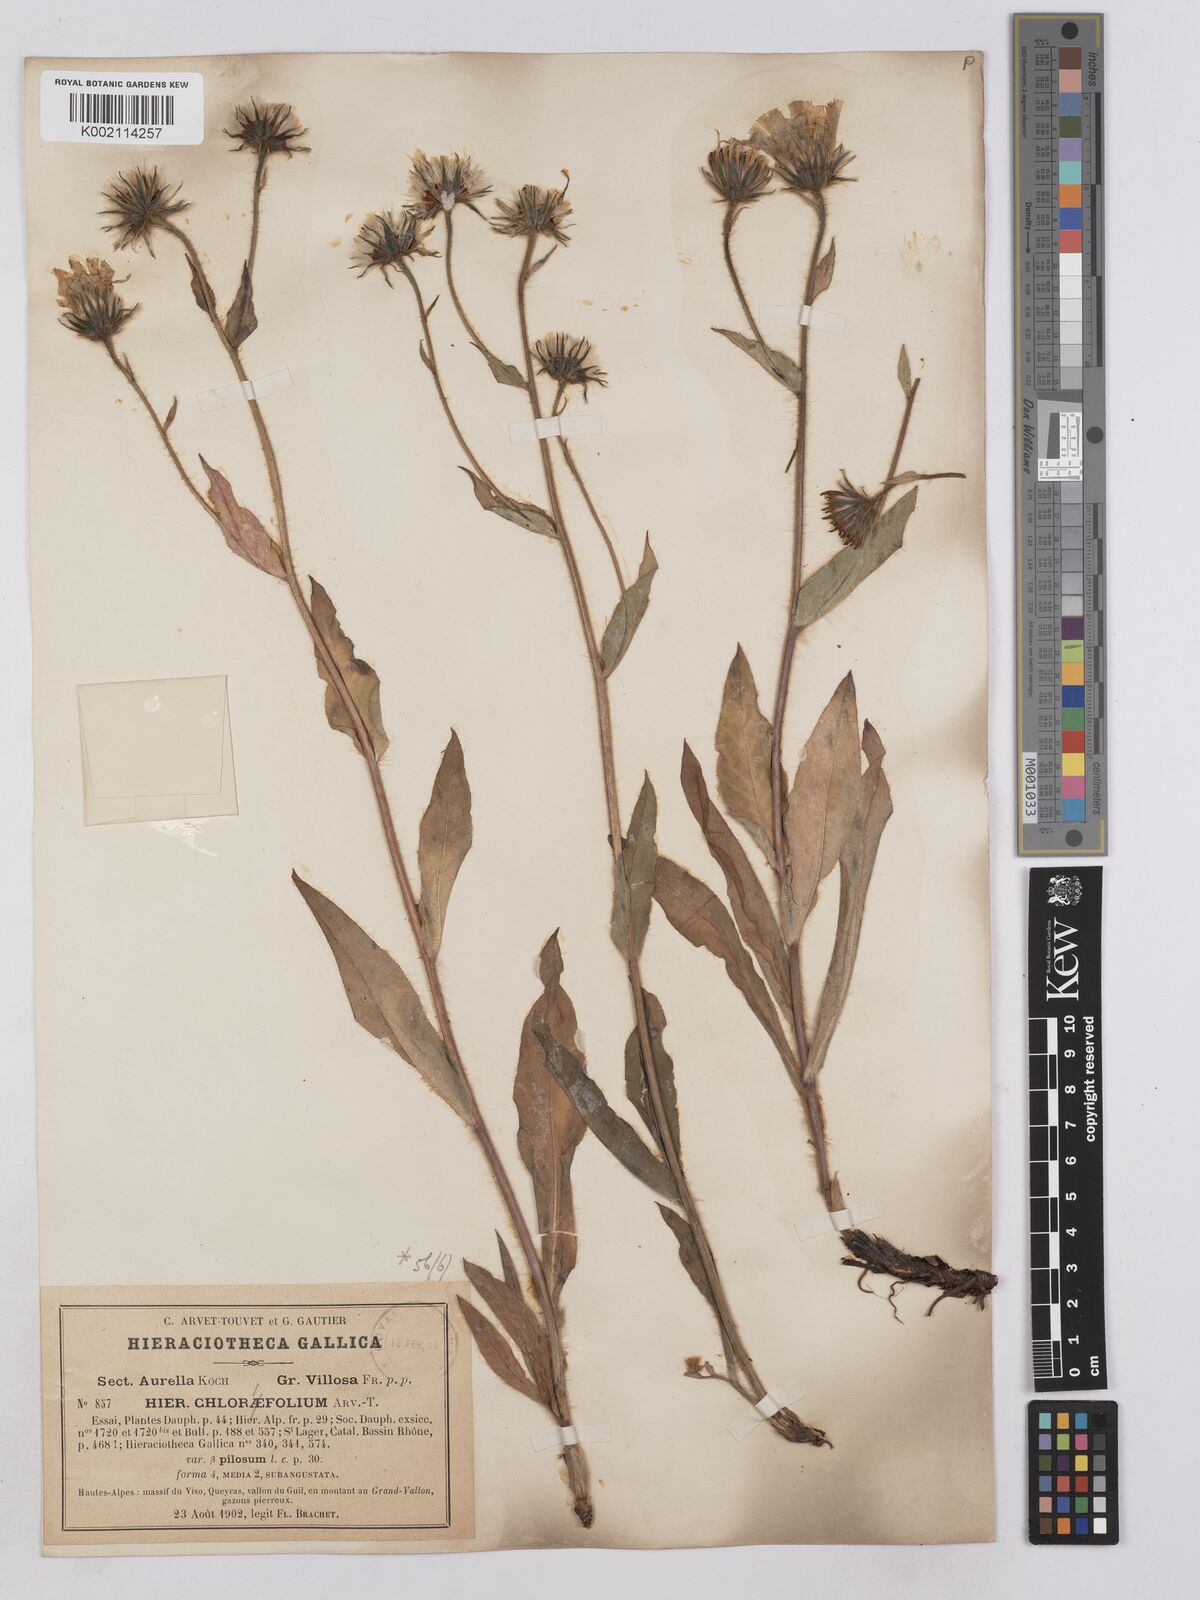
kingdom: Plantae
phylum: Tracheophyta
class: Magnoliopsida
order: Asterales
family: Asteraceae
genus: Hieracium
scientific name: Hieracium chlorifolium
